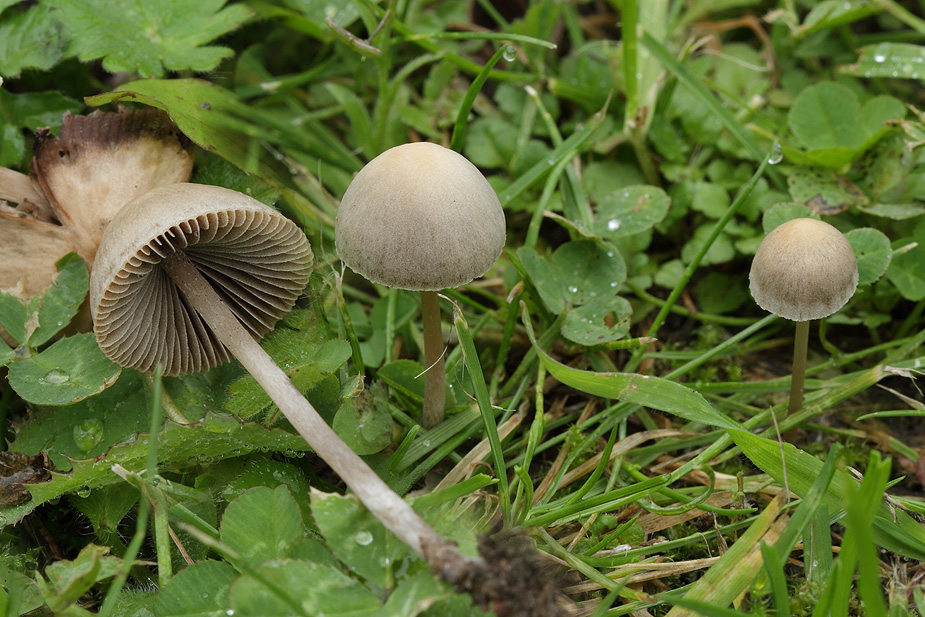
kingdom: Fungi
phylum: Basidiomycota
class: Agaricomycetes
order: Agaricales
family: Psathyrellaceae
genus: Psathyrella
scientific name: Psathyrella potteri
